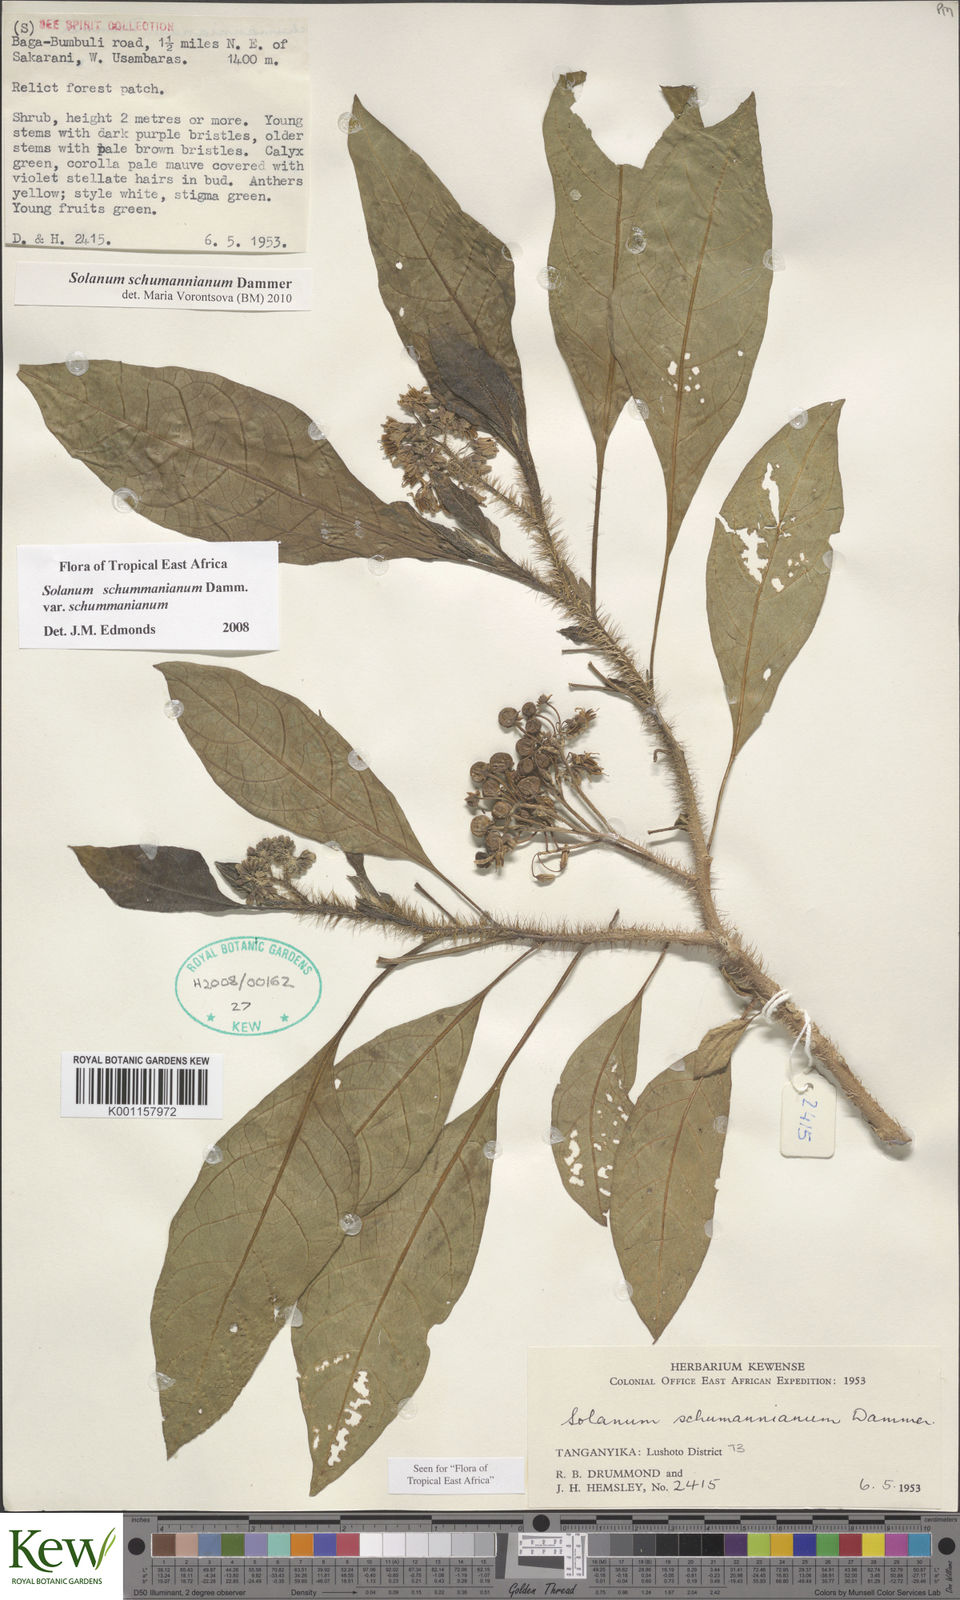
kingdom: Plantae
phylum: Tracheophyta
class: Magnoliopsida
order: Solanales
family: Solanaceae
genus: Solanum
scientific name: Solanum schumannianum
